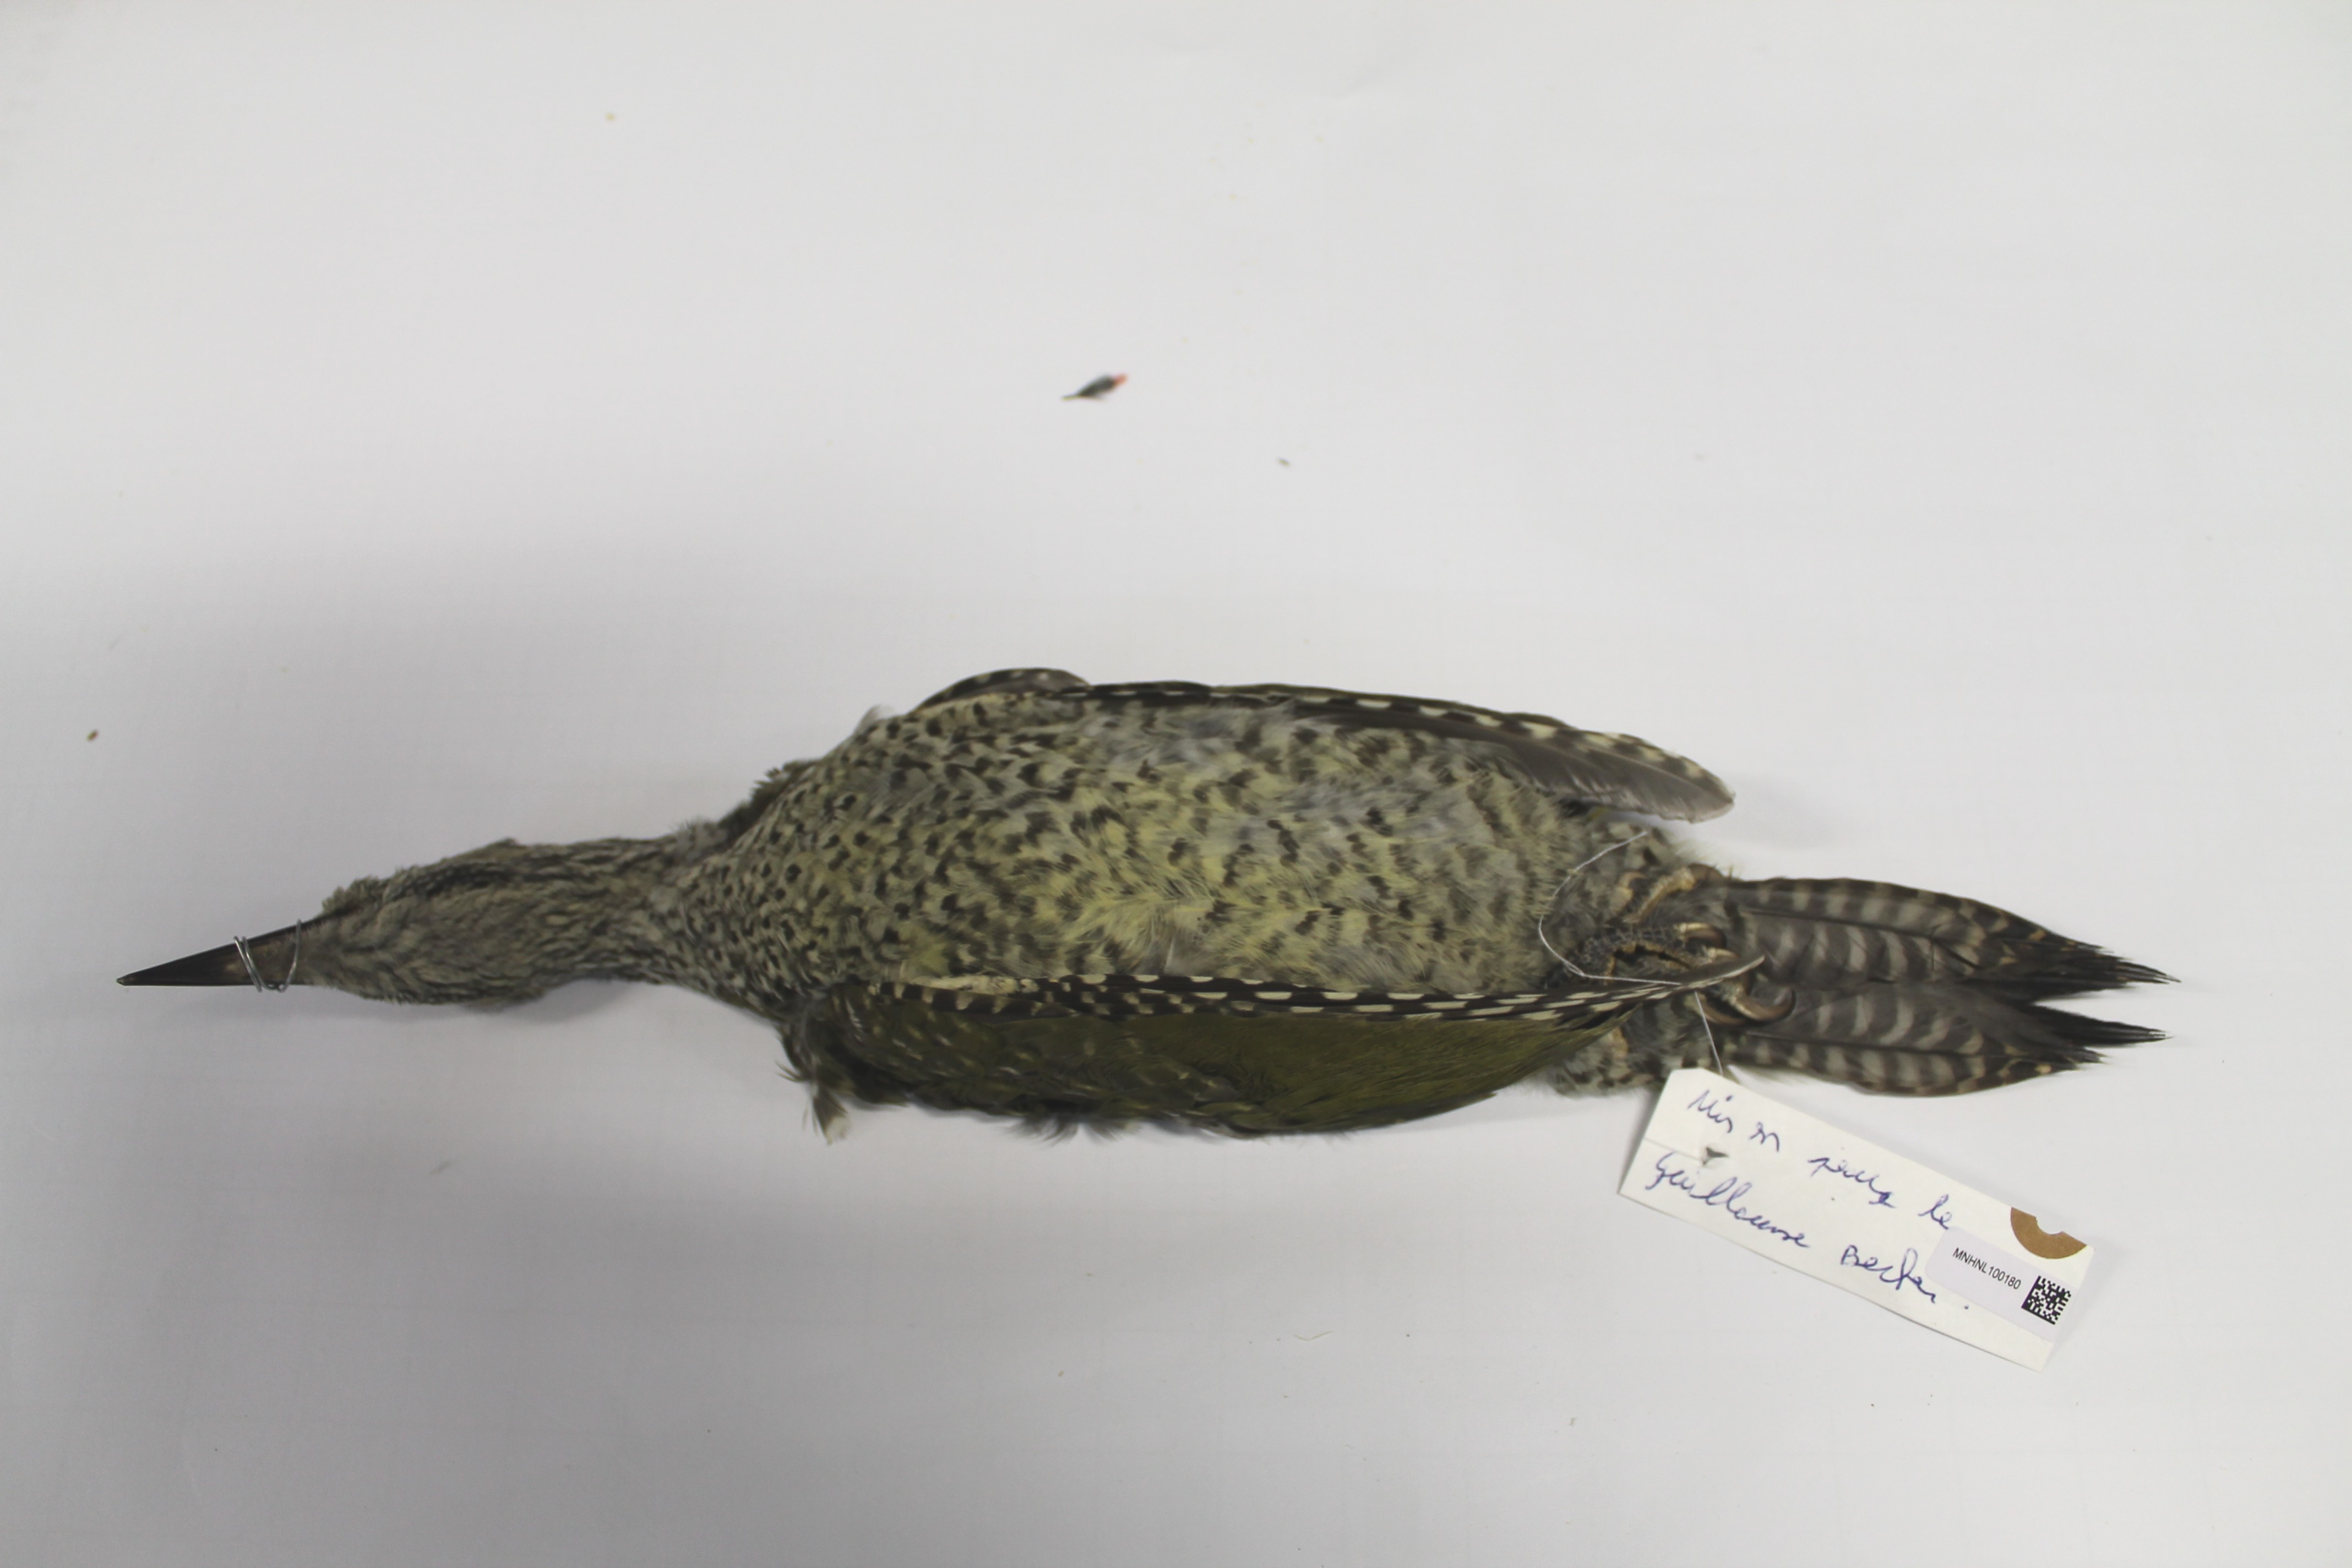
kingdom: Animalia
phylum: Chordata
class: Aves
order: Piciformes
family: Picidae
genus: Picus
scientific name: Picus viridis
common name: European green woodpecker
